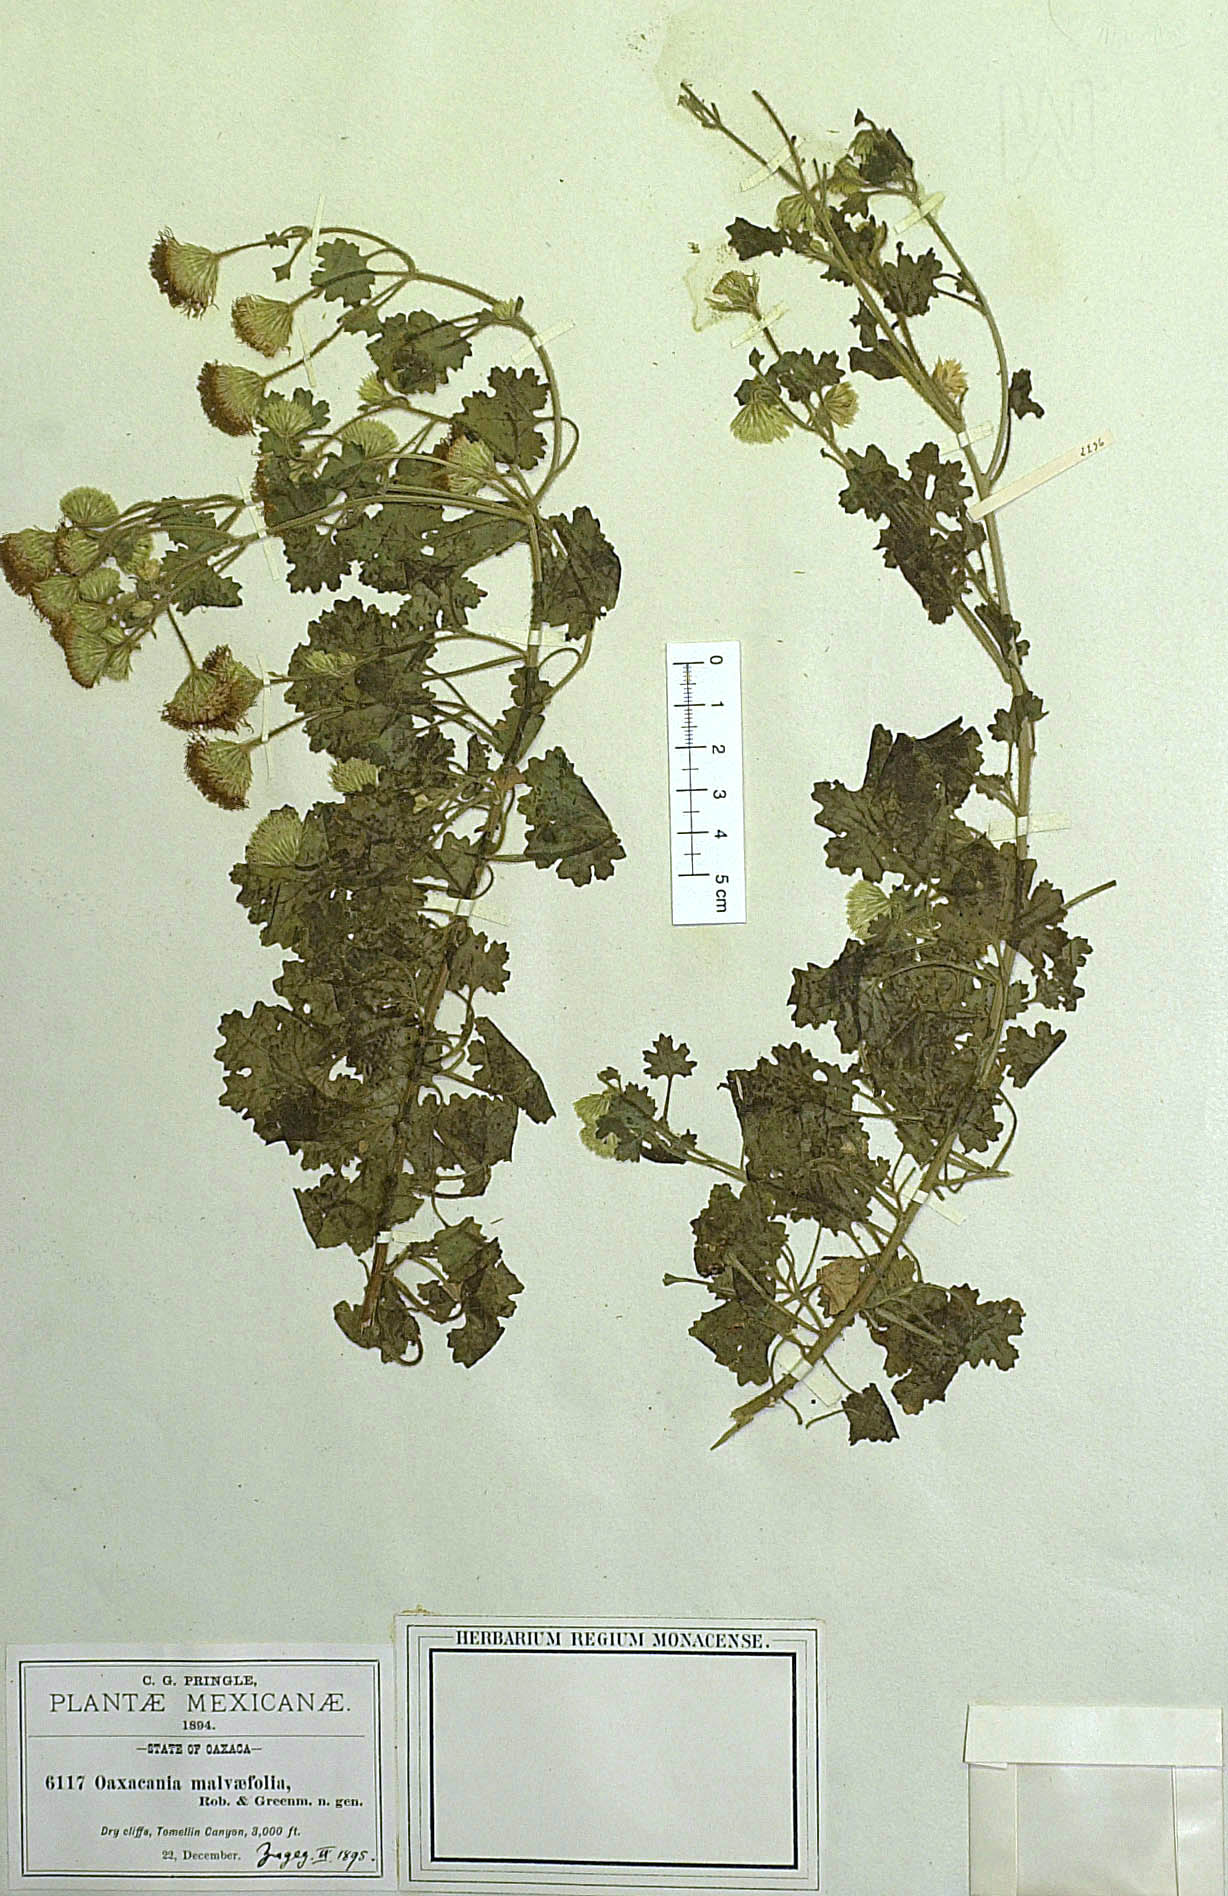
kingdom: Plantae
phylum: Tracheophyta
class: Magnoliopsida
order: Asterales
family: Asteraceae
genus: Oaxacania
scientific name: Oaxacania malvaefolia
